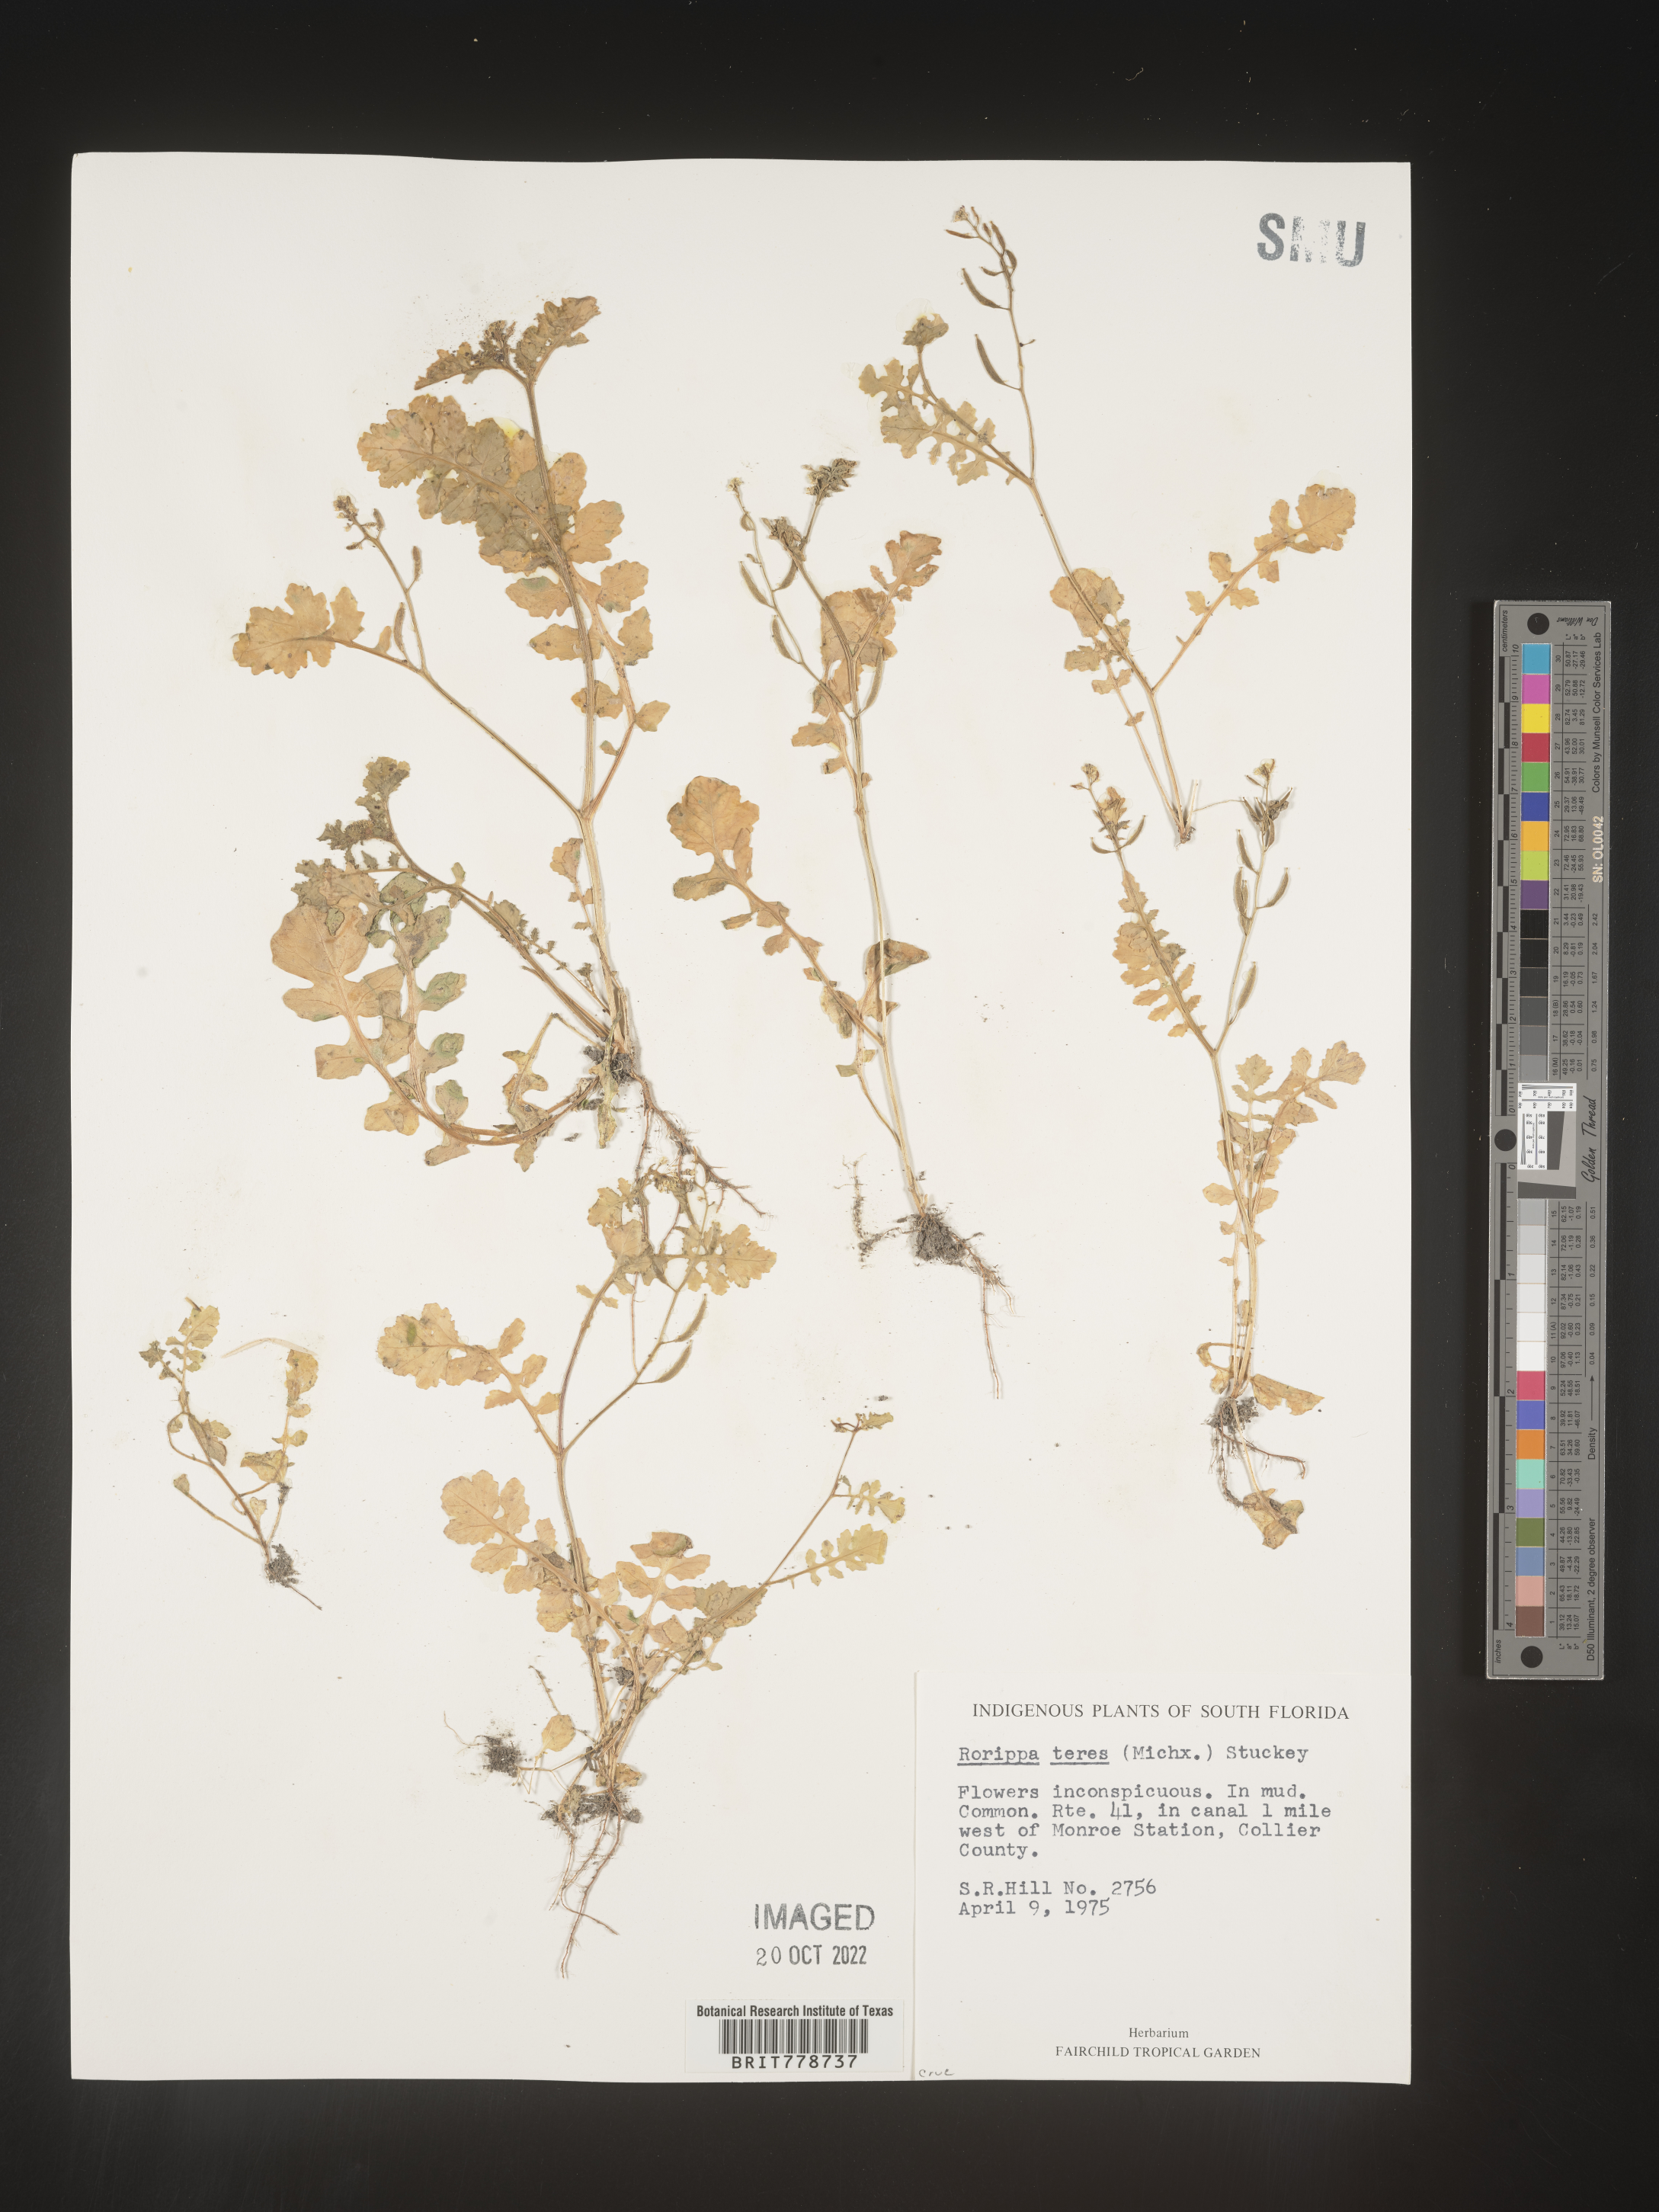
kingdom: Plantae
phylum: Tracheophyta
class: Magnoliopsida
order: Brassicales
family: Brassicaceae
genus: Rorippa
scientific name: Rorippa teres
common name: Southern marsh yellowcress
